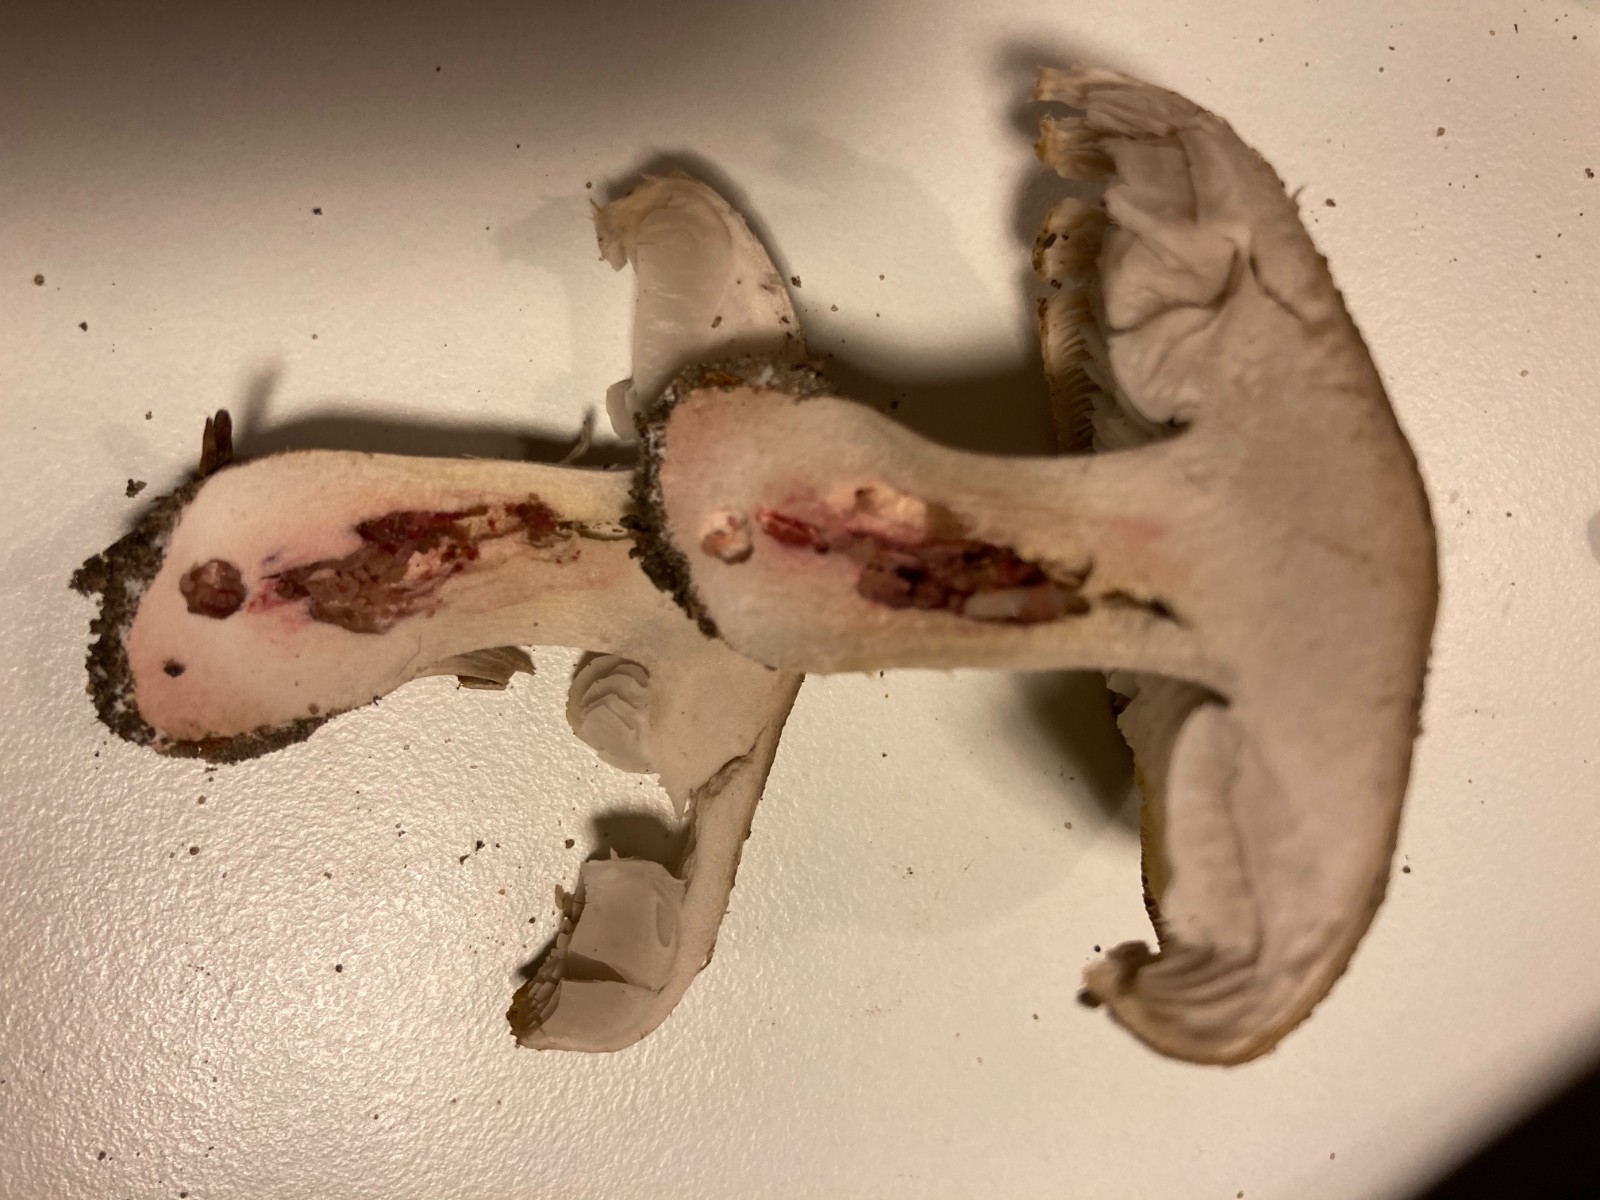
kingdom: Fungi
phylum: Basidiomycota
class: Agaricomycetes
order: Russulales
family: Russulaceae
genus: Russula
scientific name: Russula adusta
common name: sværtende skørhat
